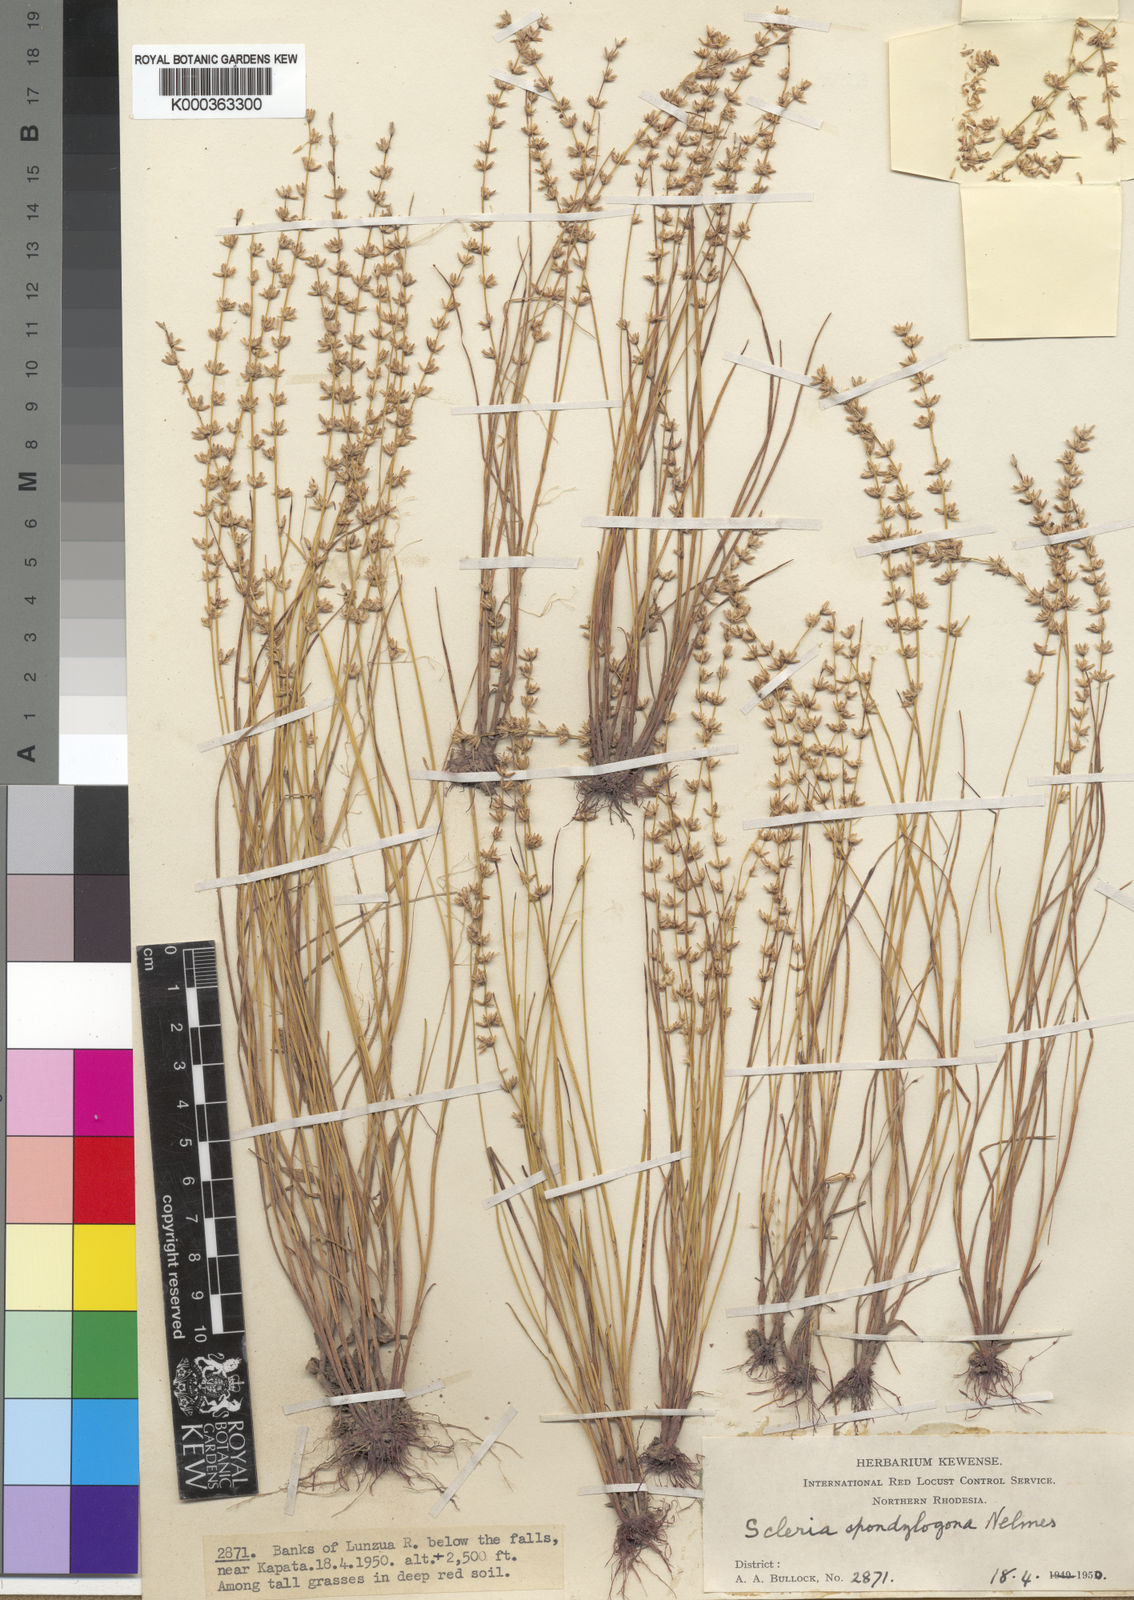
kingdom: Plantae
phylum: Tracheophyta
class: Liliopsida
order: Poales
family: Cyperaceae
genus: Scleria
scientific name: Scleria delicatula
